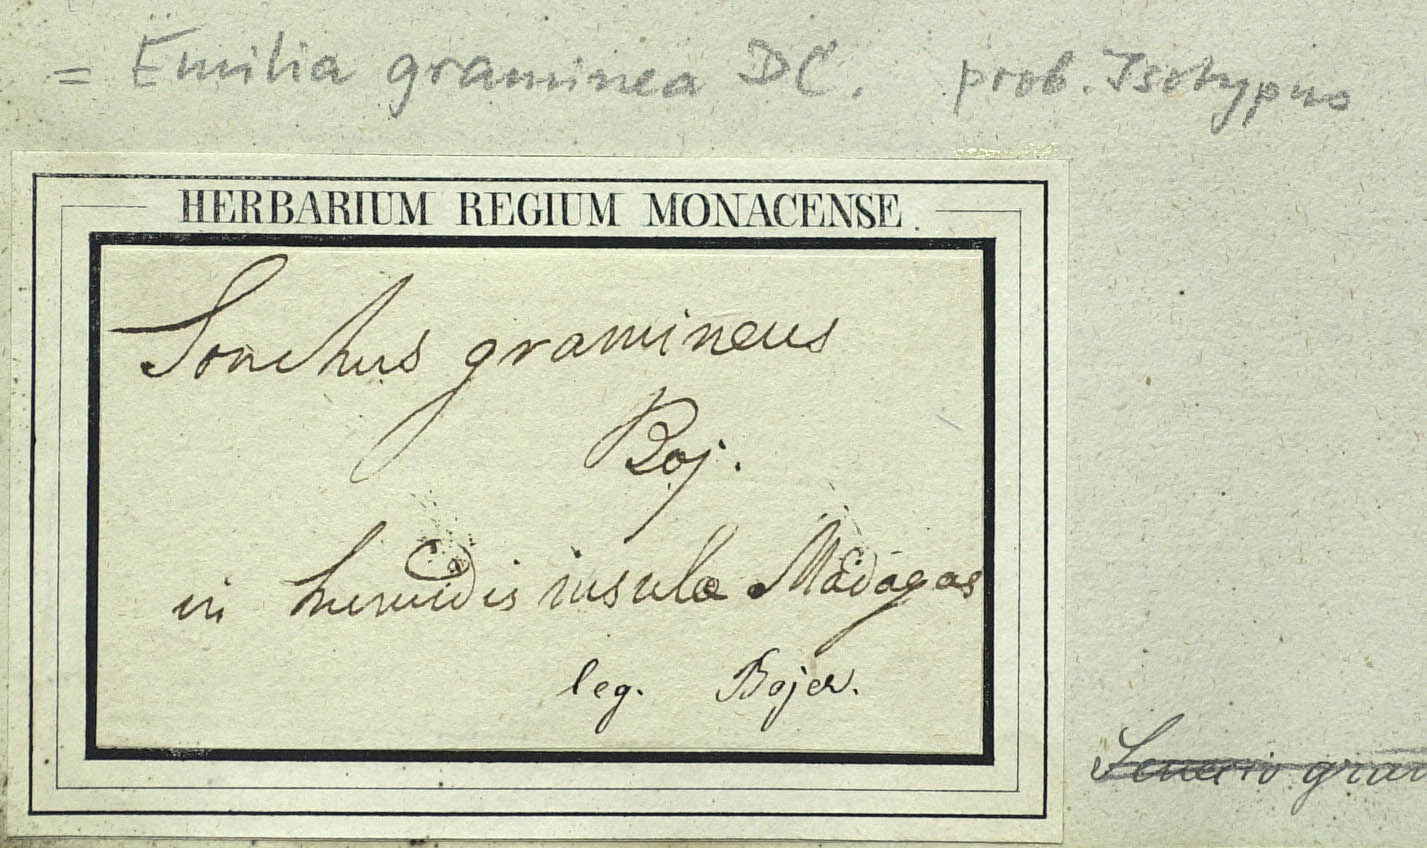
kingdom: Plantae
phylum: Tracheophyta
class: Magnoliopsida
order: Asterales
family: Asteraceae
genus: Emilia
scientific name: Emilia graminea
